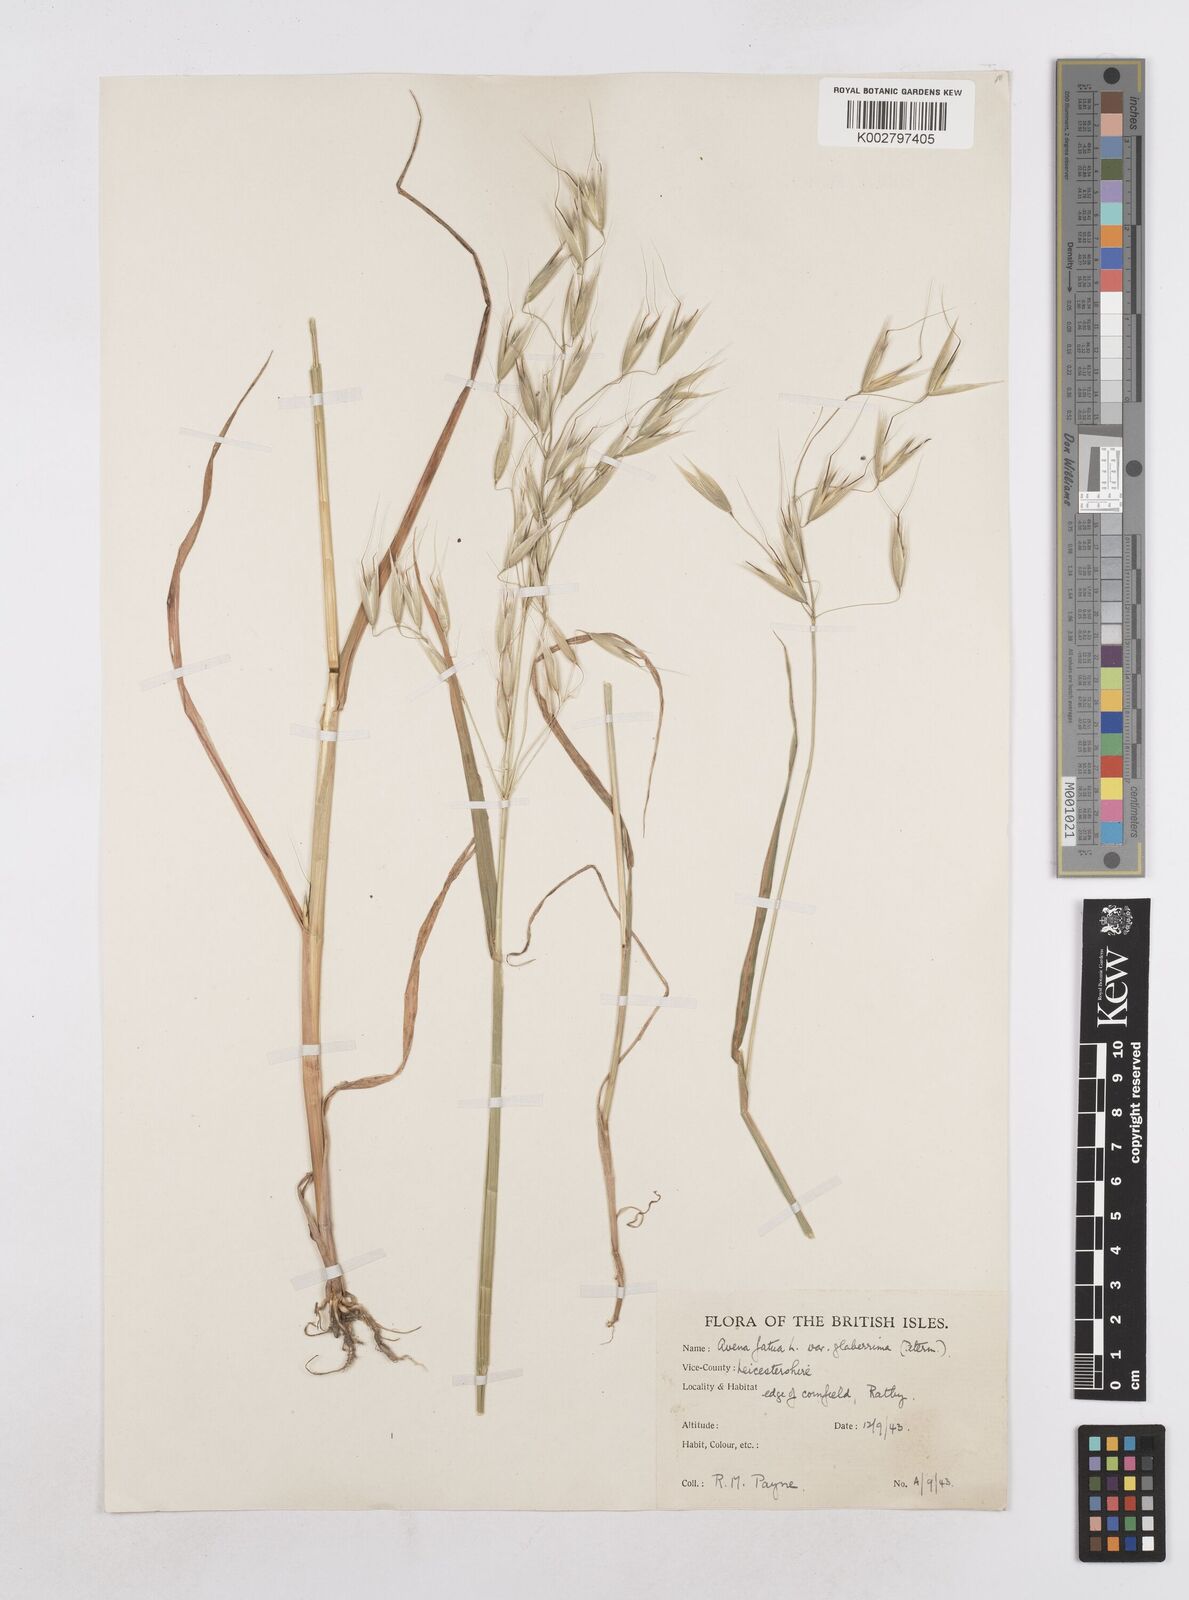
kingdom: Plantae
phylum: Tracheophyta
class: Liliopsida
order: Poales
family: Poaceae
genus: Avena
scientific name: Avena fatua
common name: Wild oat
